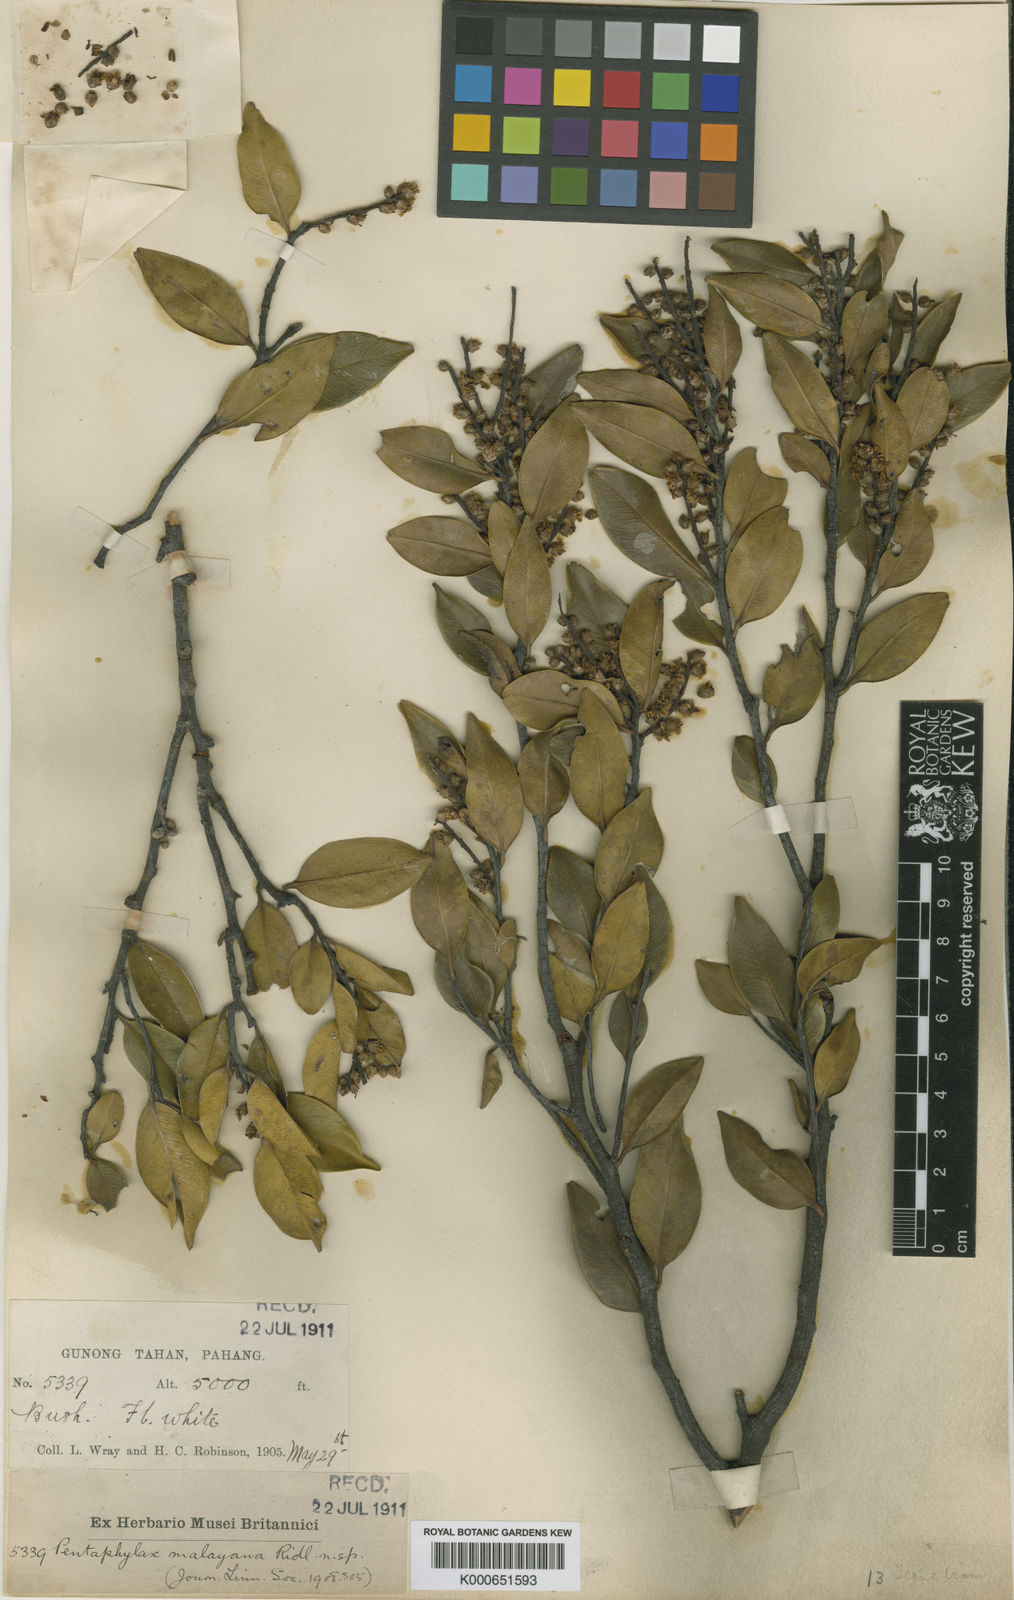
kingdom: Plantae
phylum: Tracheophyta
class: Magnoliopsida
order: Ericales
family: Pentaphylacaceae
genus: Pentaphylax
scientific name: Pentaphylax euryoides
